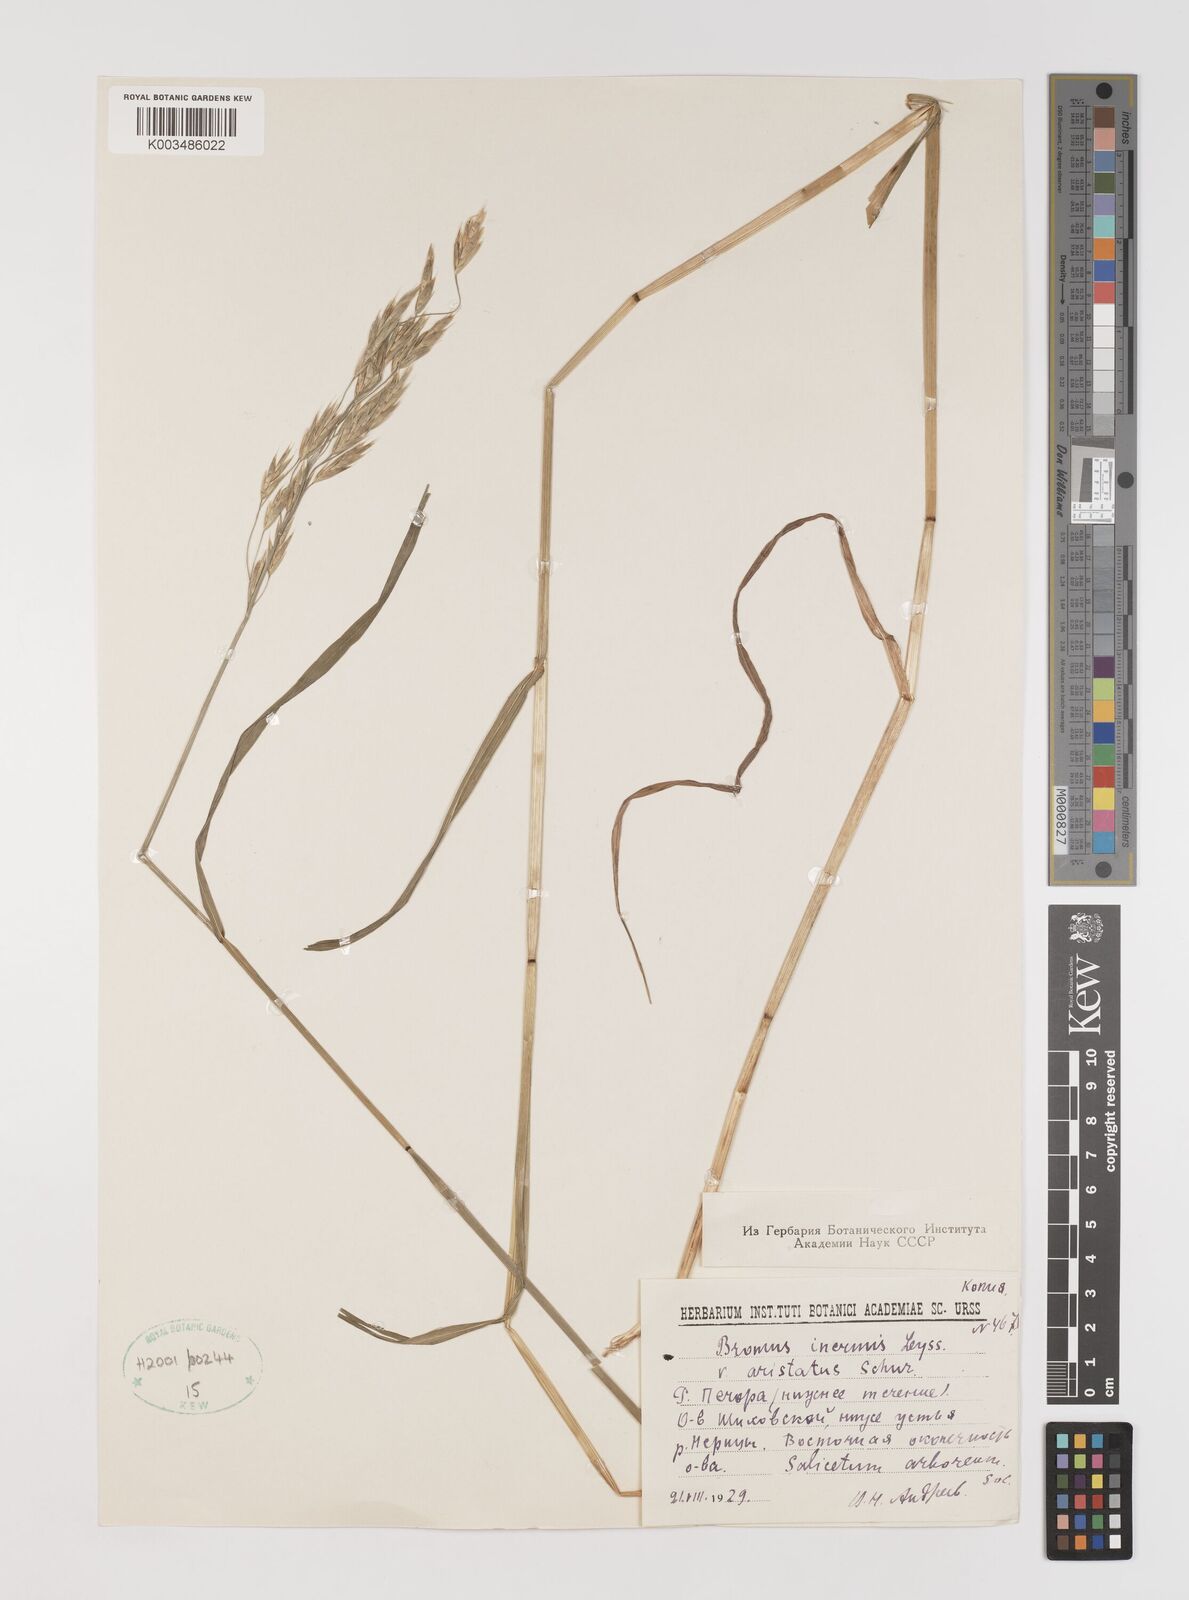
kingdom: Plantae
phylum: Tracheophyta
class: Liliopsida
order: Poales
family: Poaceae
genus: Bromus
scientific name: Bromus inermis
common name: Smooth brome
